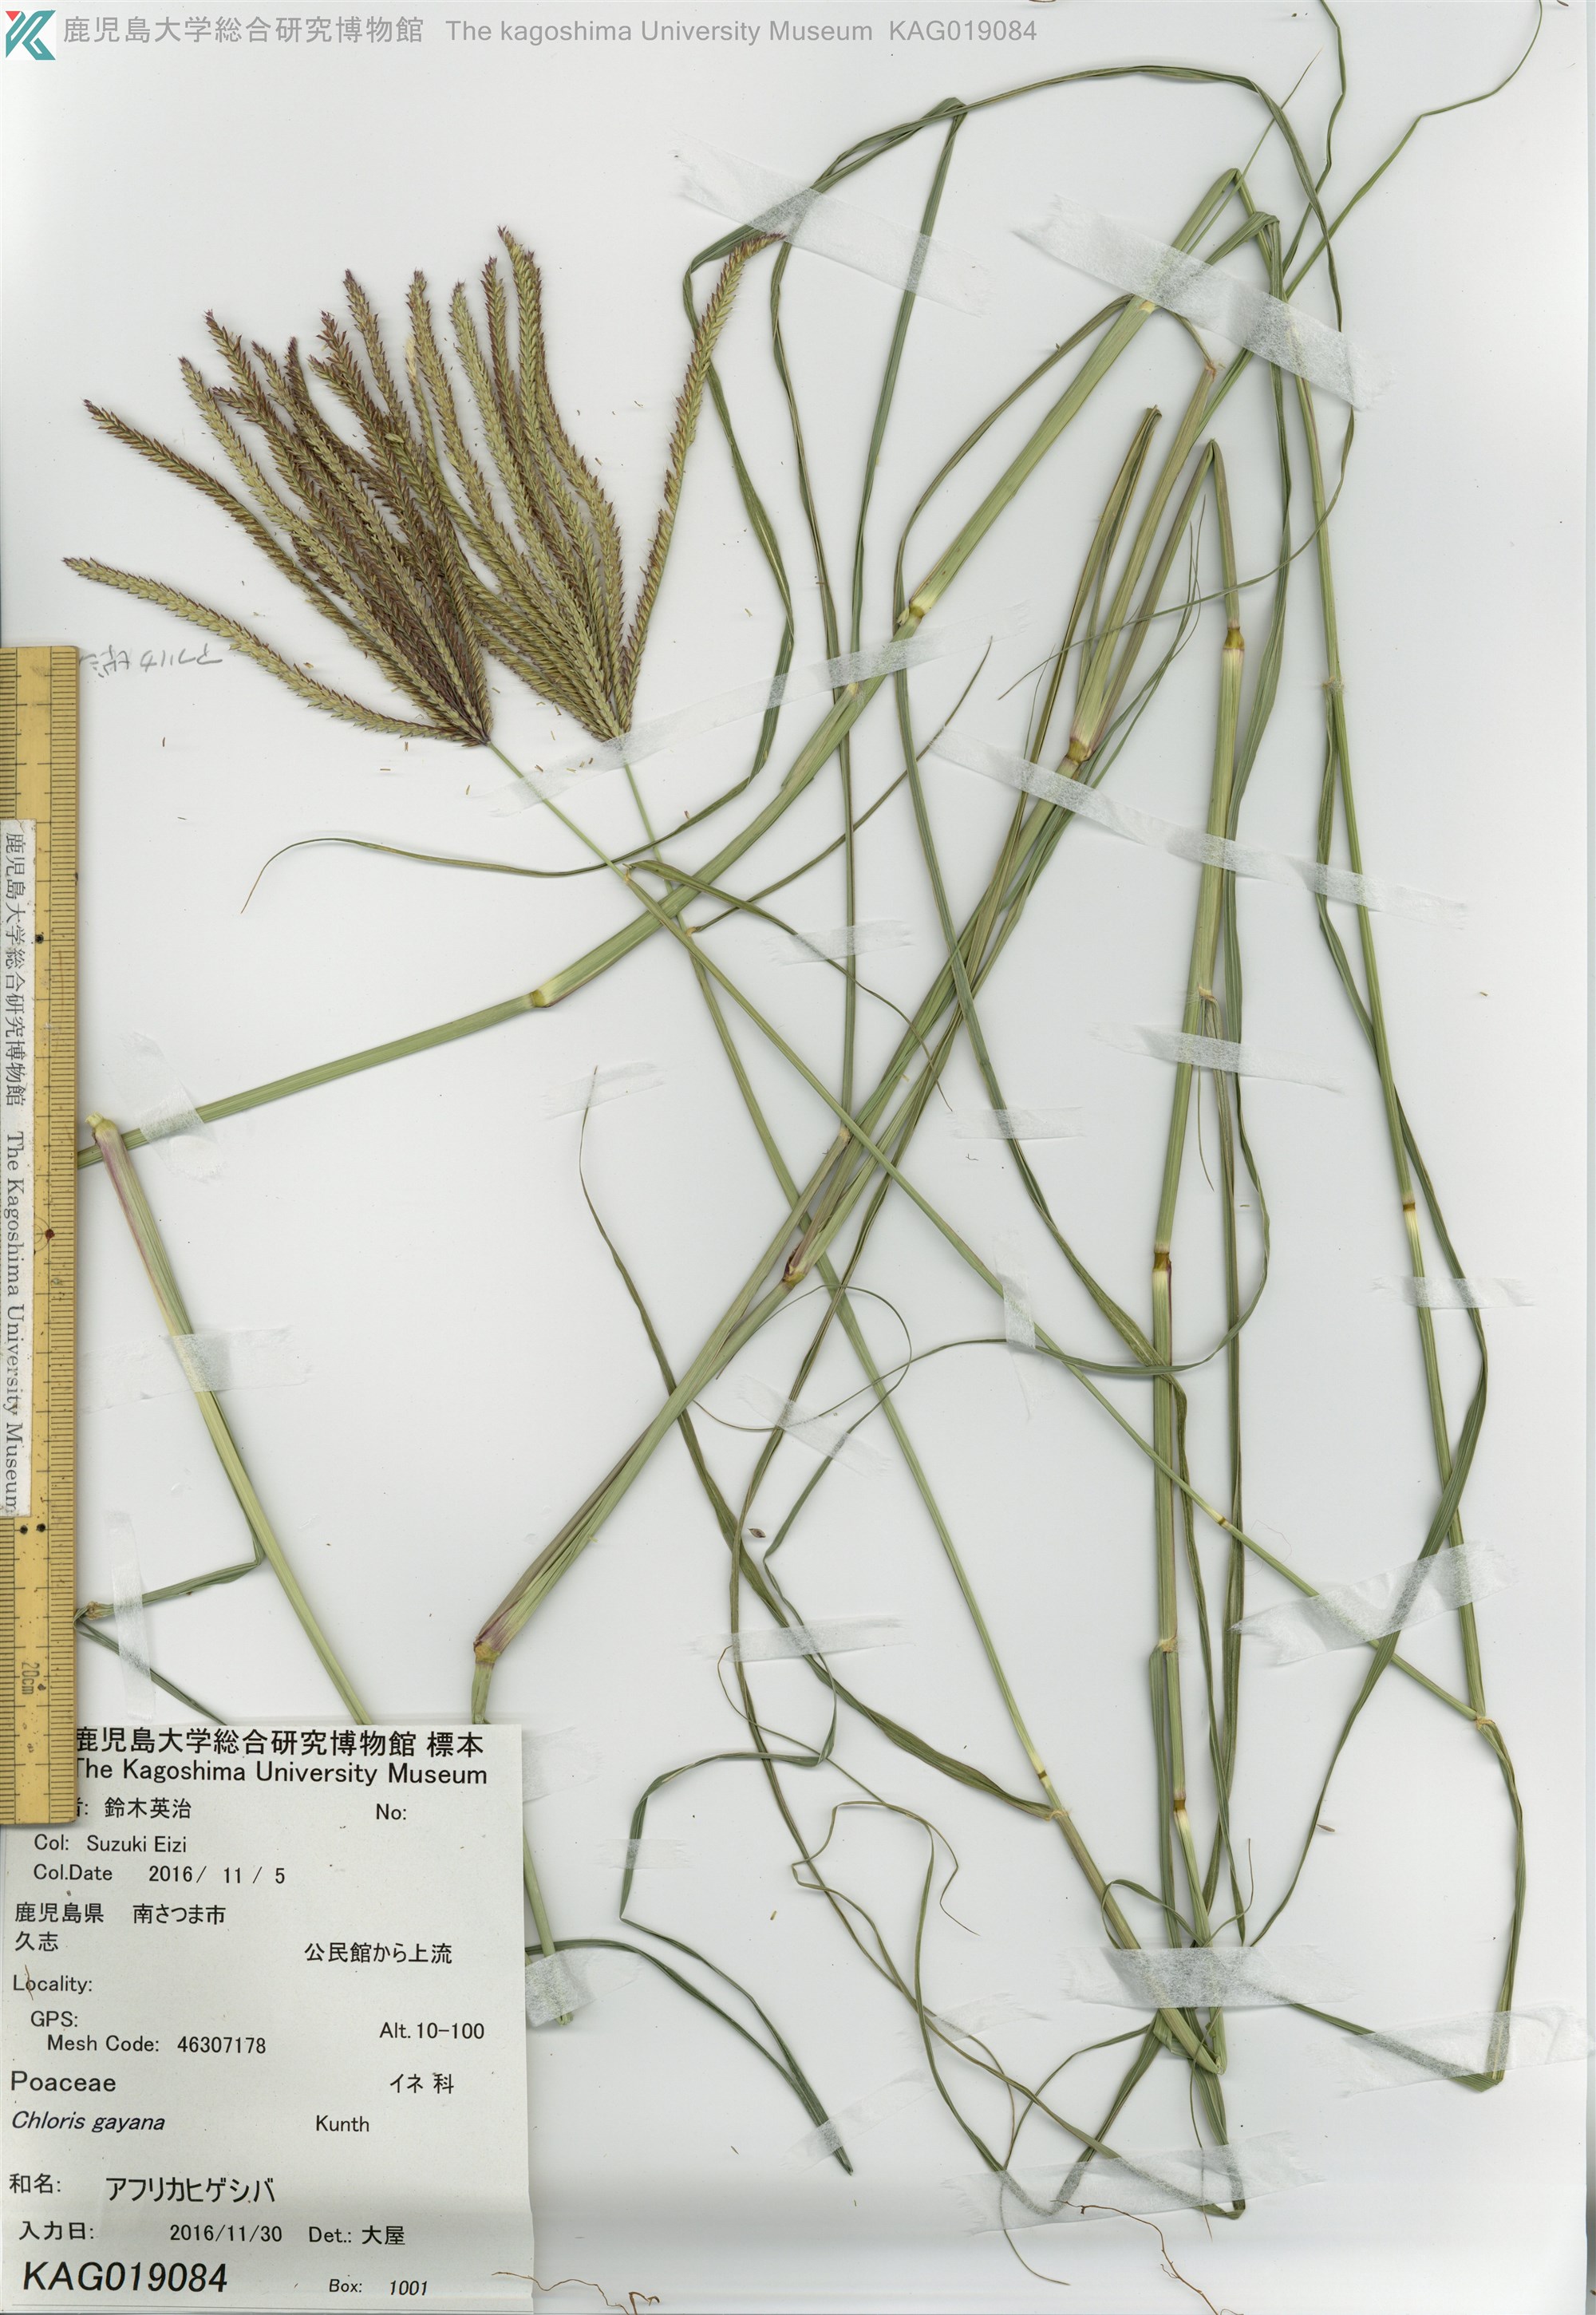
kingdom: Plantae
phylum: Tracheophyta
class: Liliopsida
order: Poales
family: Poaceae
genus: Chloris
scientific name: Chloris gayana
